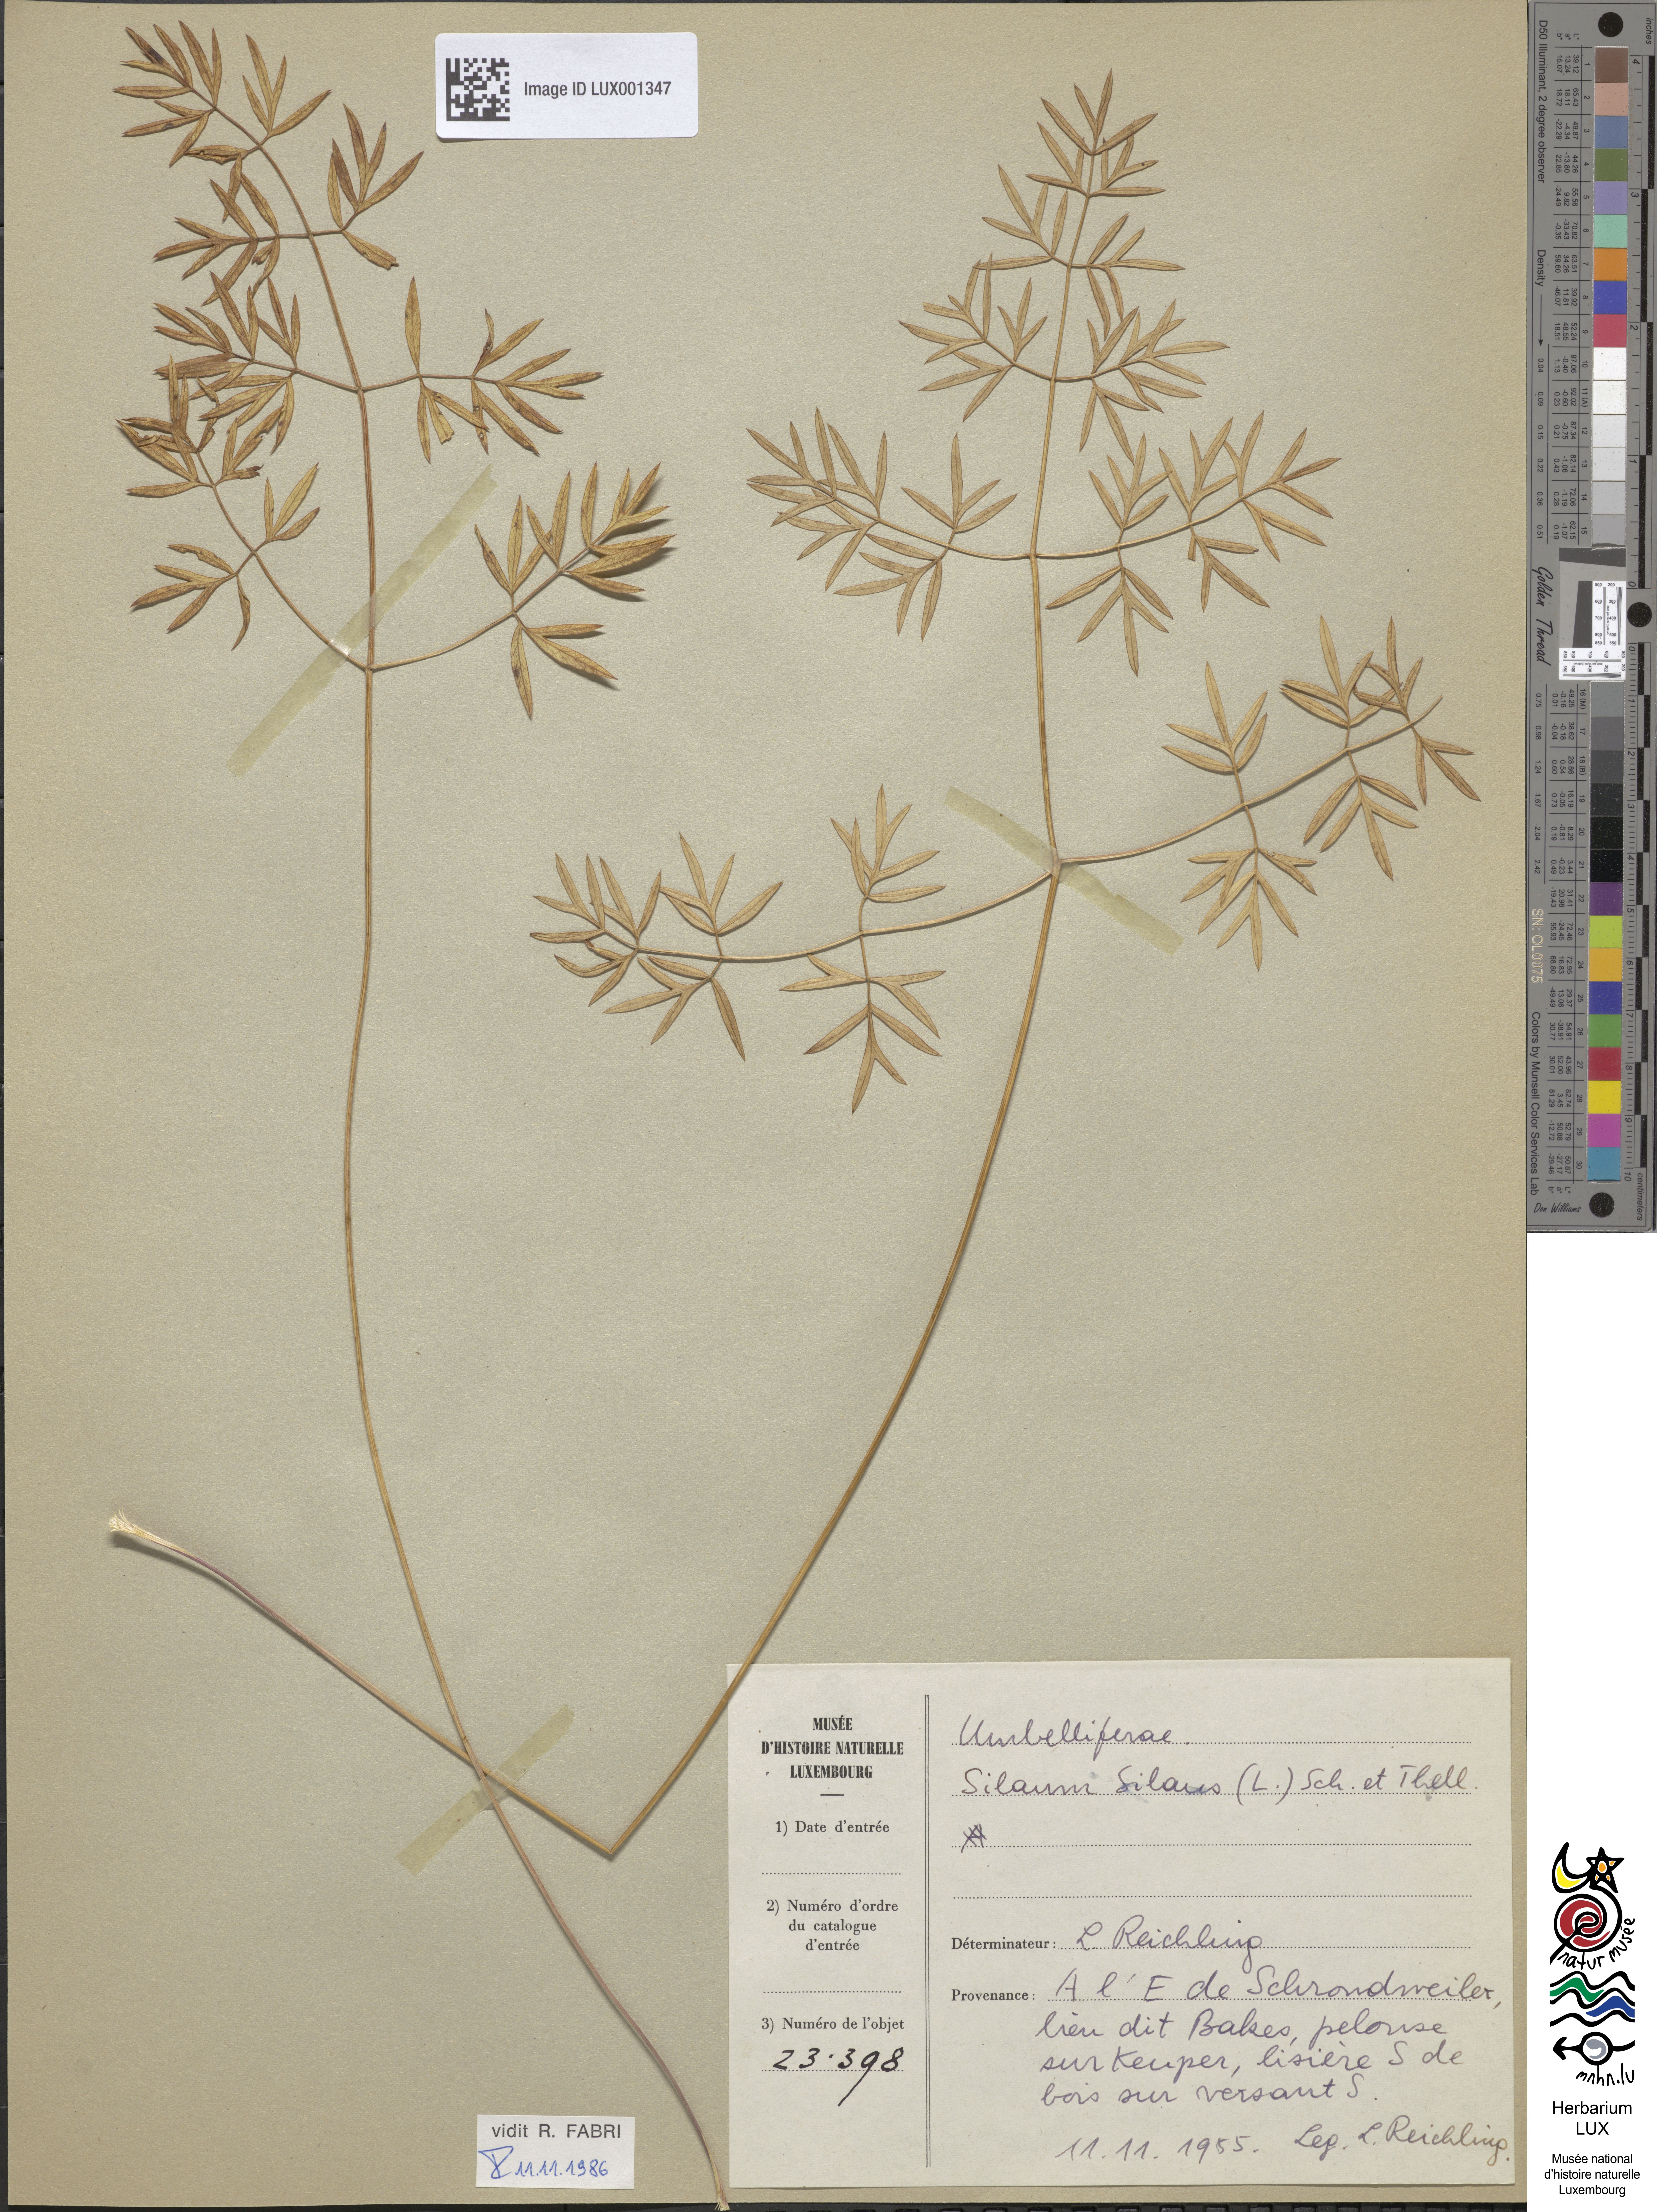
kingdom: Plantae
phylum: Tracheophyta
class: Magnoliopsida
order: Apiales
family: Apiaceae
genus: Silaum
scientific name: Silaum silaus
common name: Pepper-saxifrage
